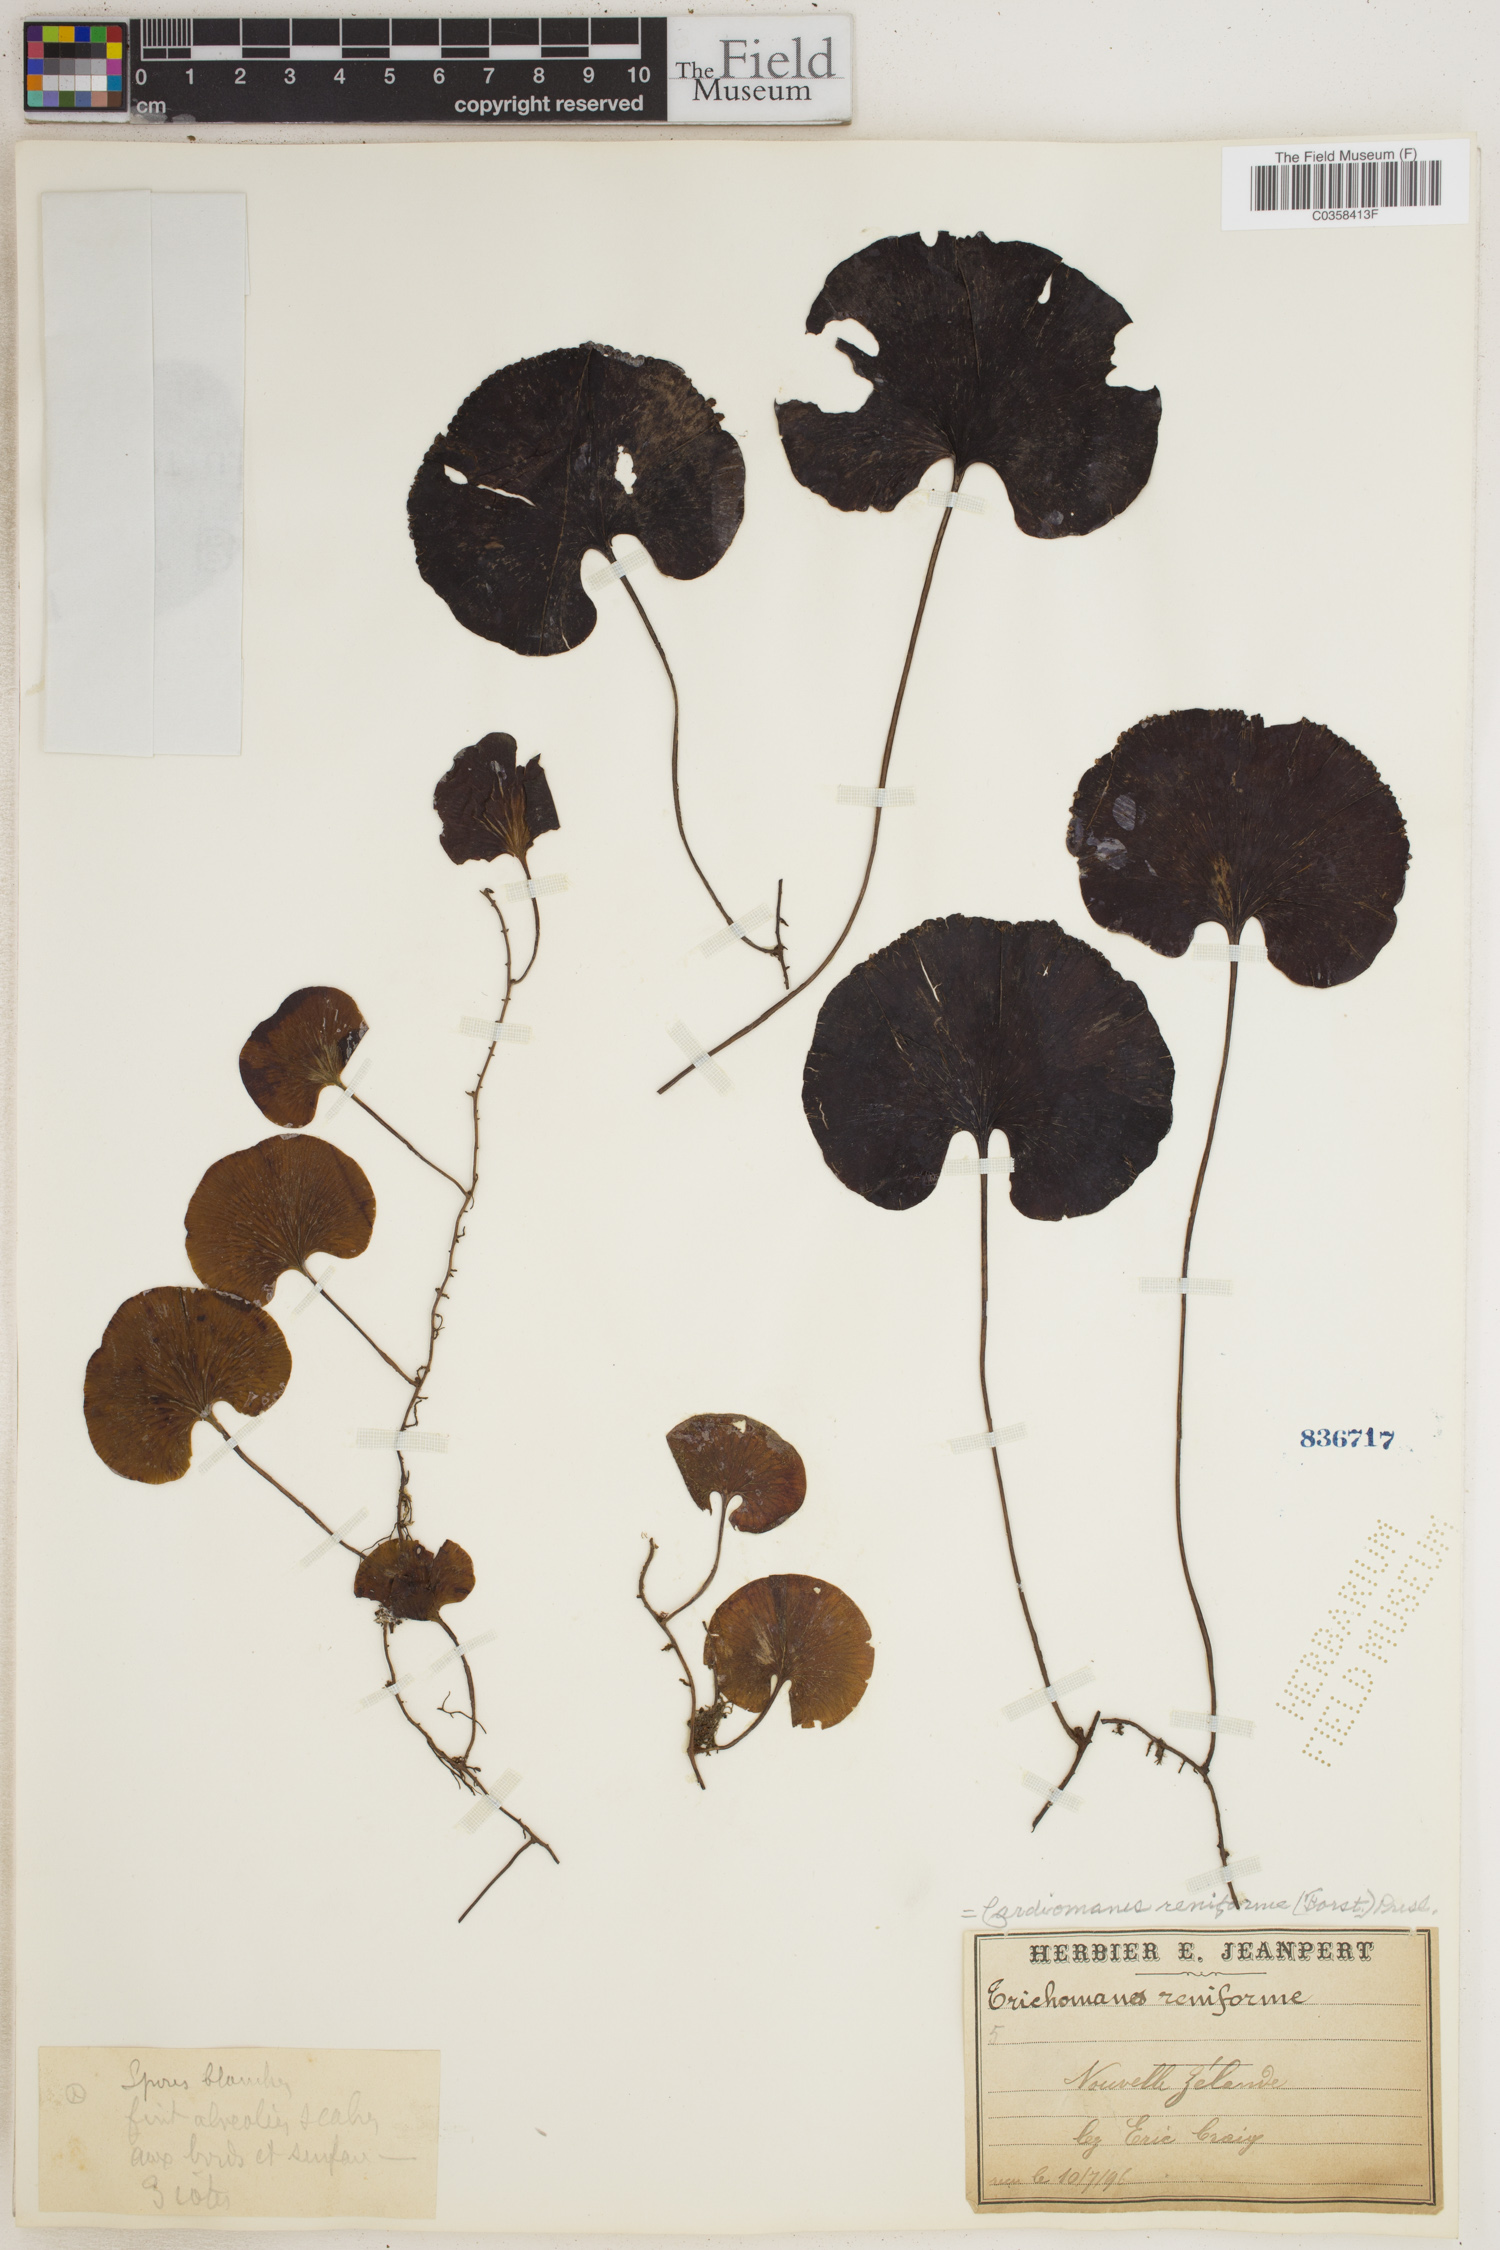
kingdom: Plantae
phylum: Tracheophyta
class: Polypodiopsida
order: Hymenophyllales
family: Hymenophyllaceae
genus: Hymenophyllum
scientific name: Hymenophyllum nephrophyllum
